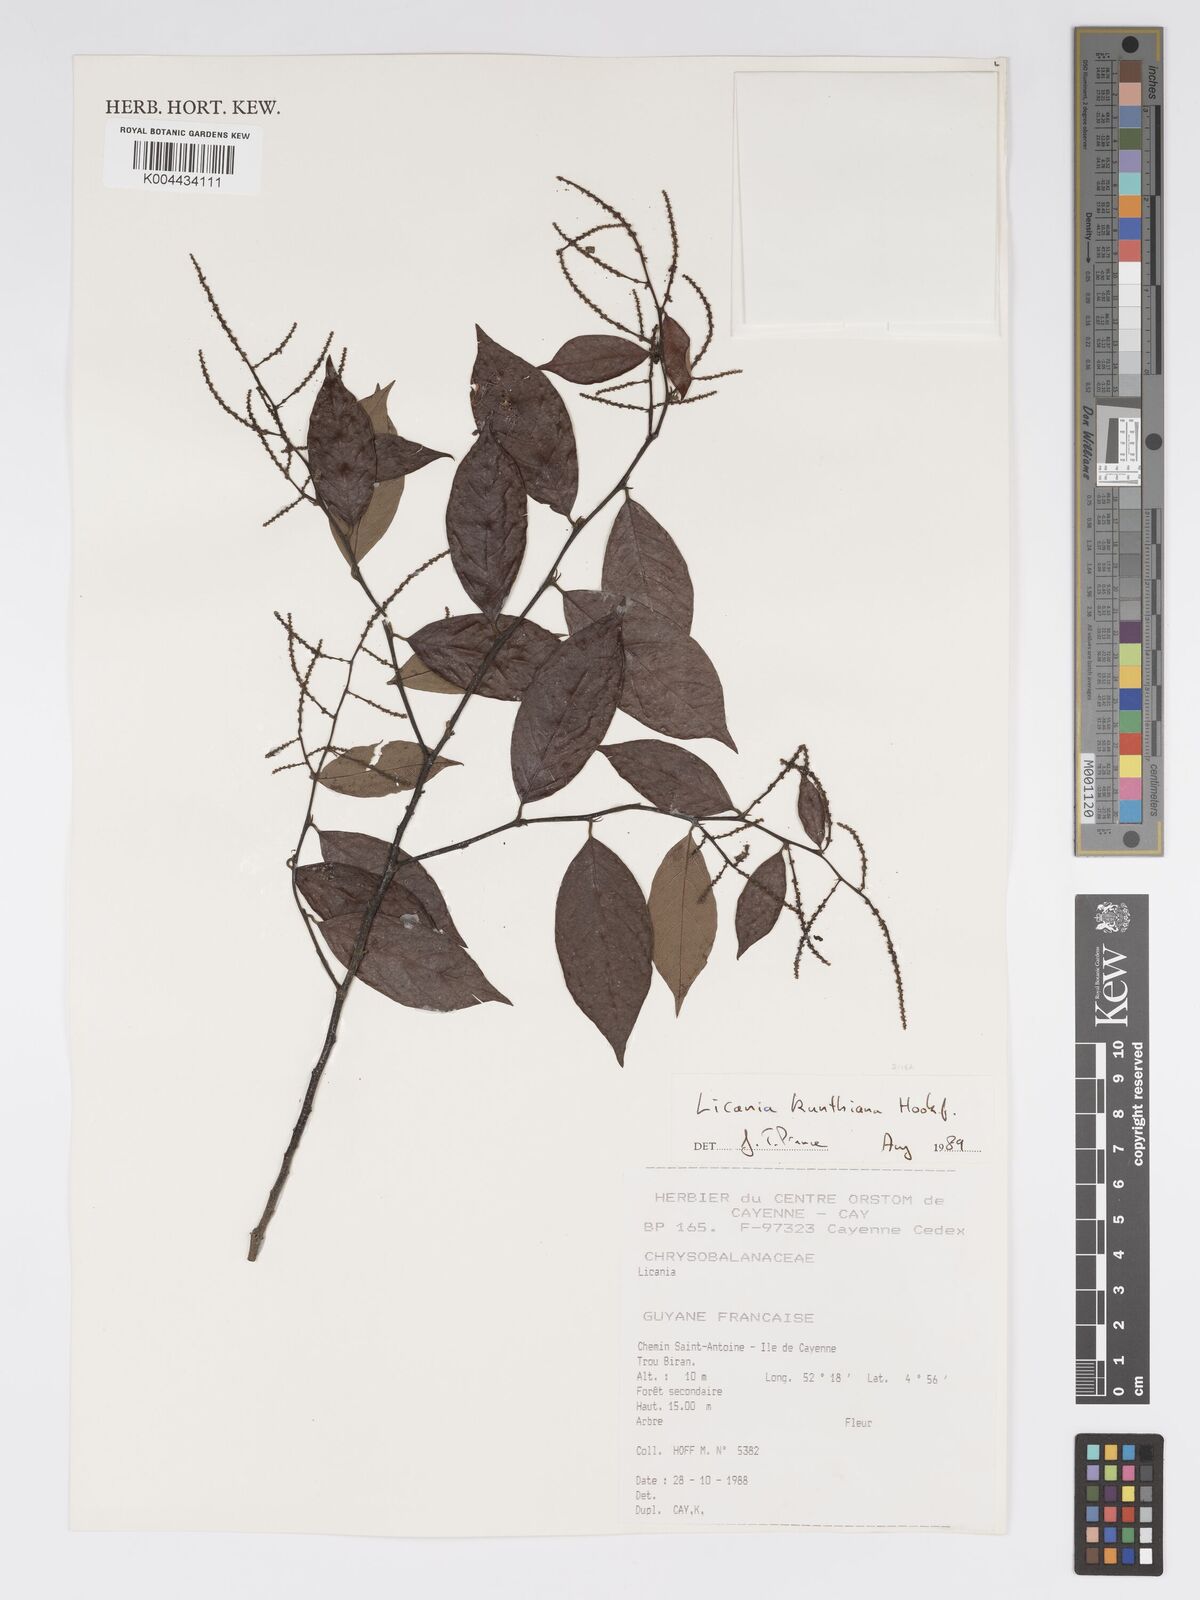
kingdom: Plantae
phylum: Tracheophyta
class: Magnoliopsida
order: Malpighiales
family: Chrysobalanaceae
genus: Licania
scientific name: Licania kunthiana
